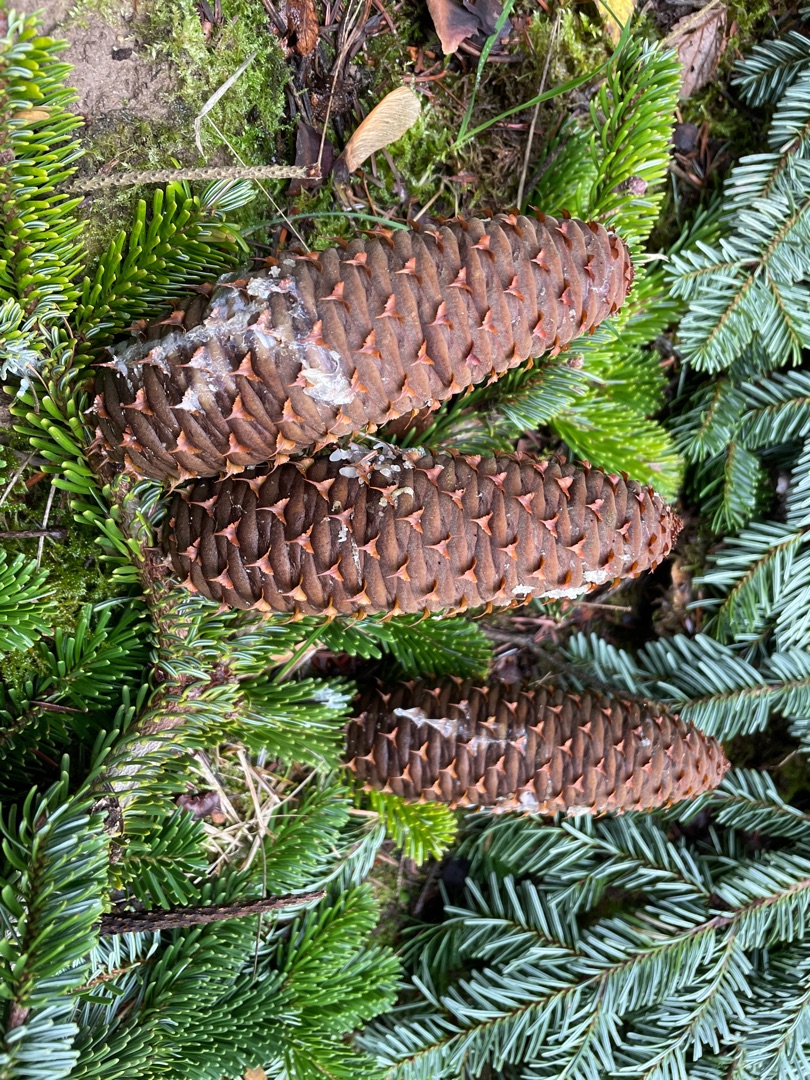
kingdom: Plantae
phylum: Tracheophyta
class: Pinopsida
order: Pinales
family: Pinaceae
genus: Abies
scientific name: Abies nordmanniana
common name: Nordmannsgran
